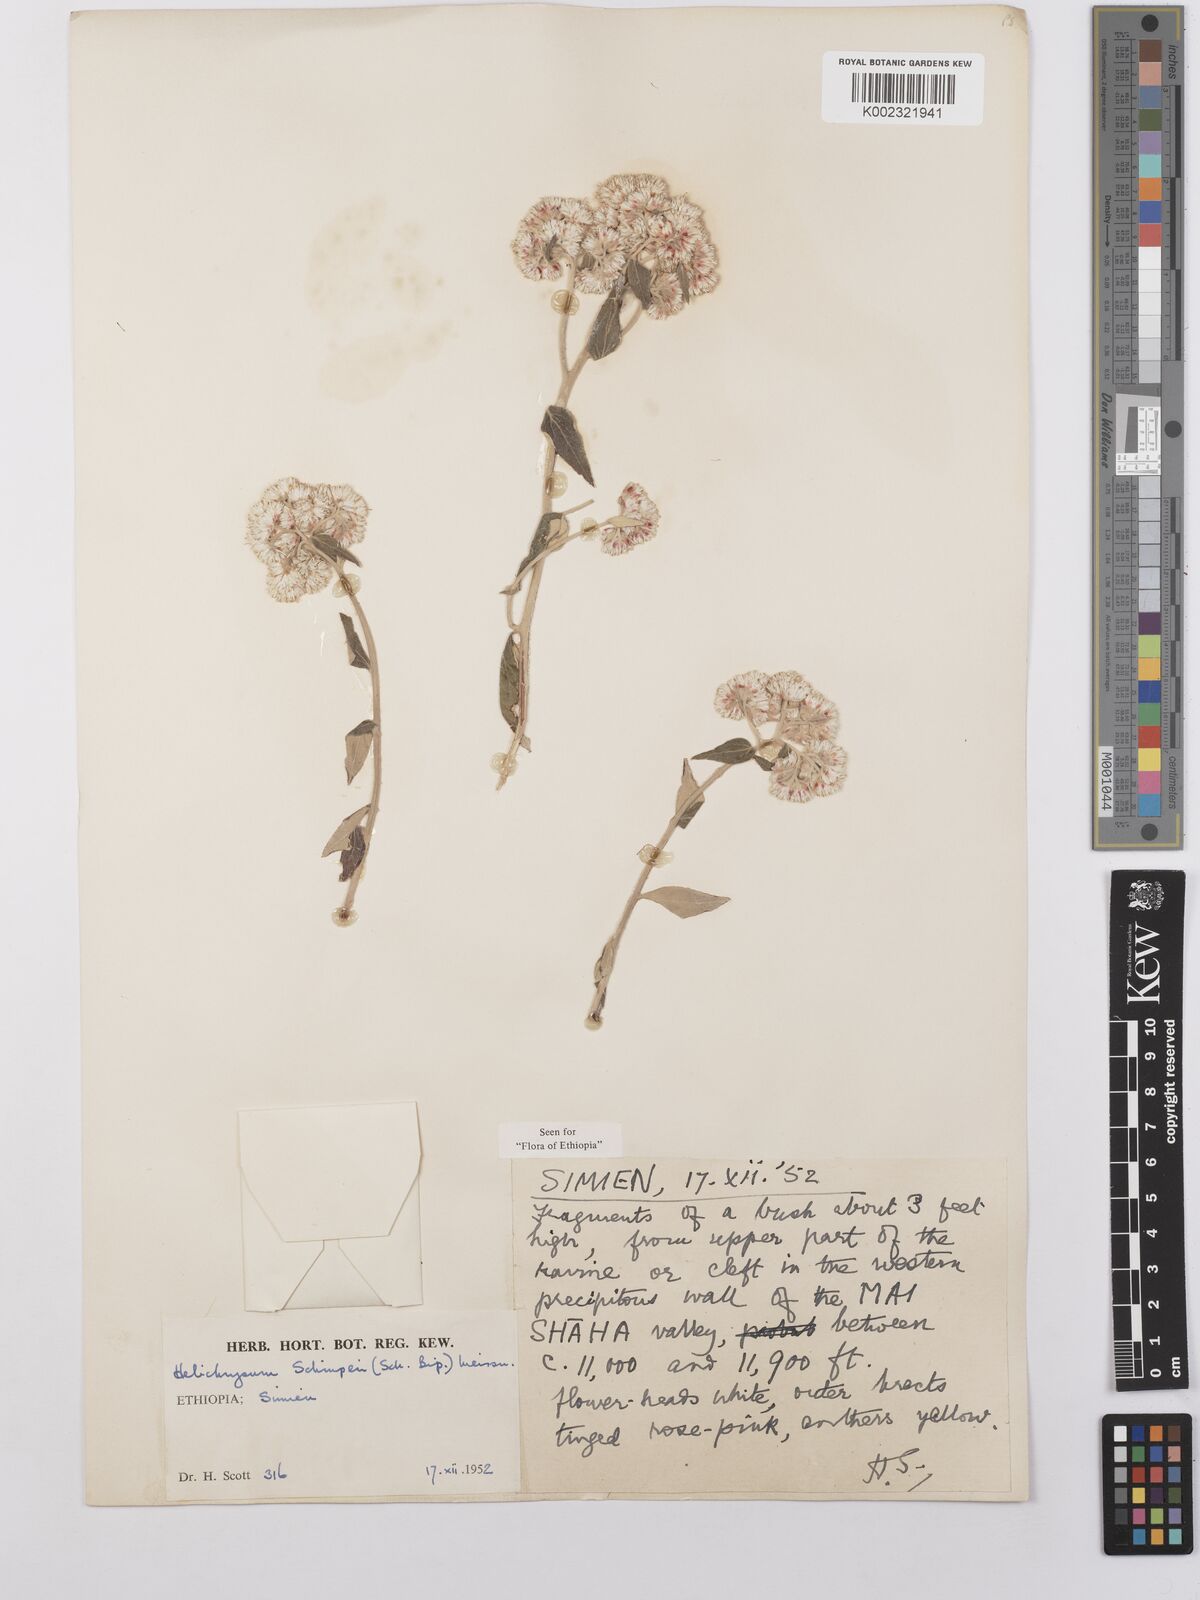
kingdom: Plantae
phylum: Tracheophyta
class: Magnoliopsida
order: Asterales
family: Asteraceae
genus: Helichrysum
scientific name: Helichrysum schimperi
